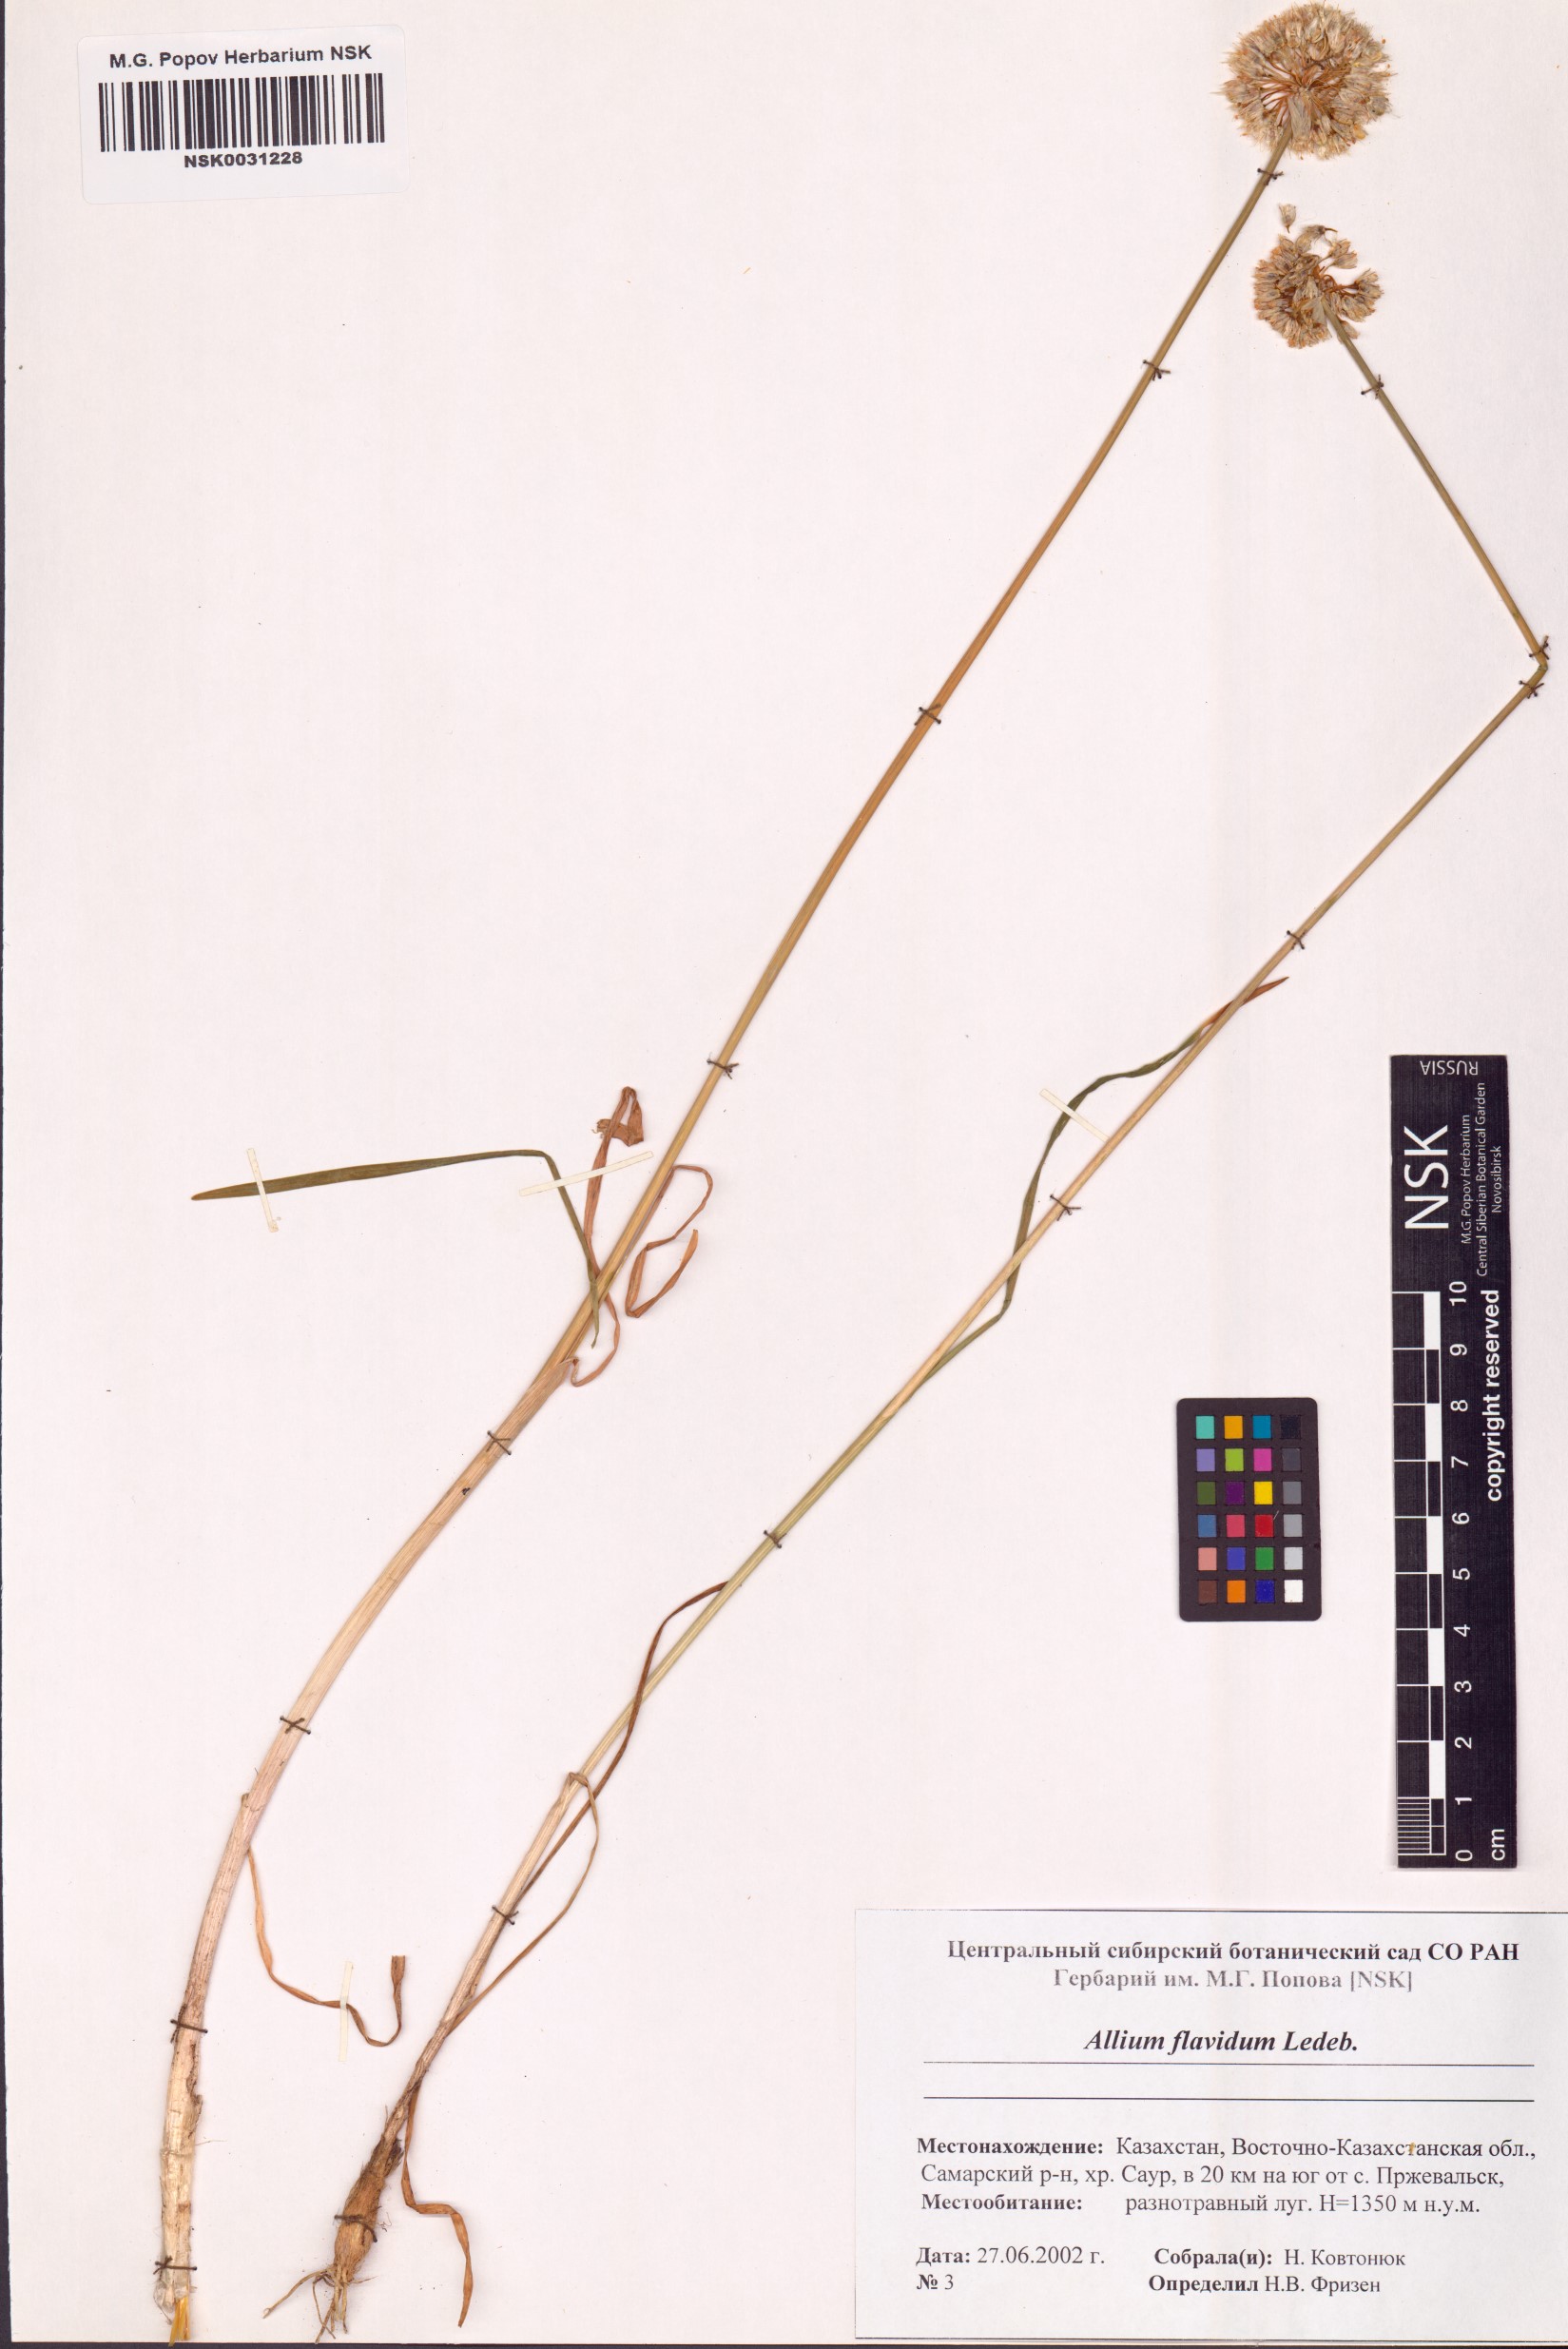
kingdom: Plantae
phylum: Tracheophyta
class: Liliopsida
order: Asparagales
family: Amaryllidaceae
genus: Allium
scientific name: Allium flavidum
